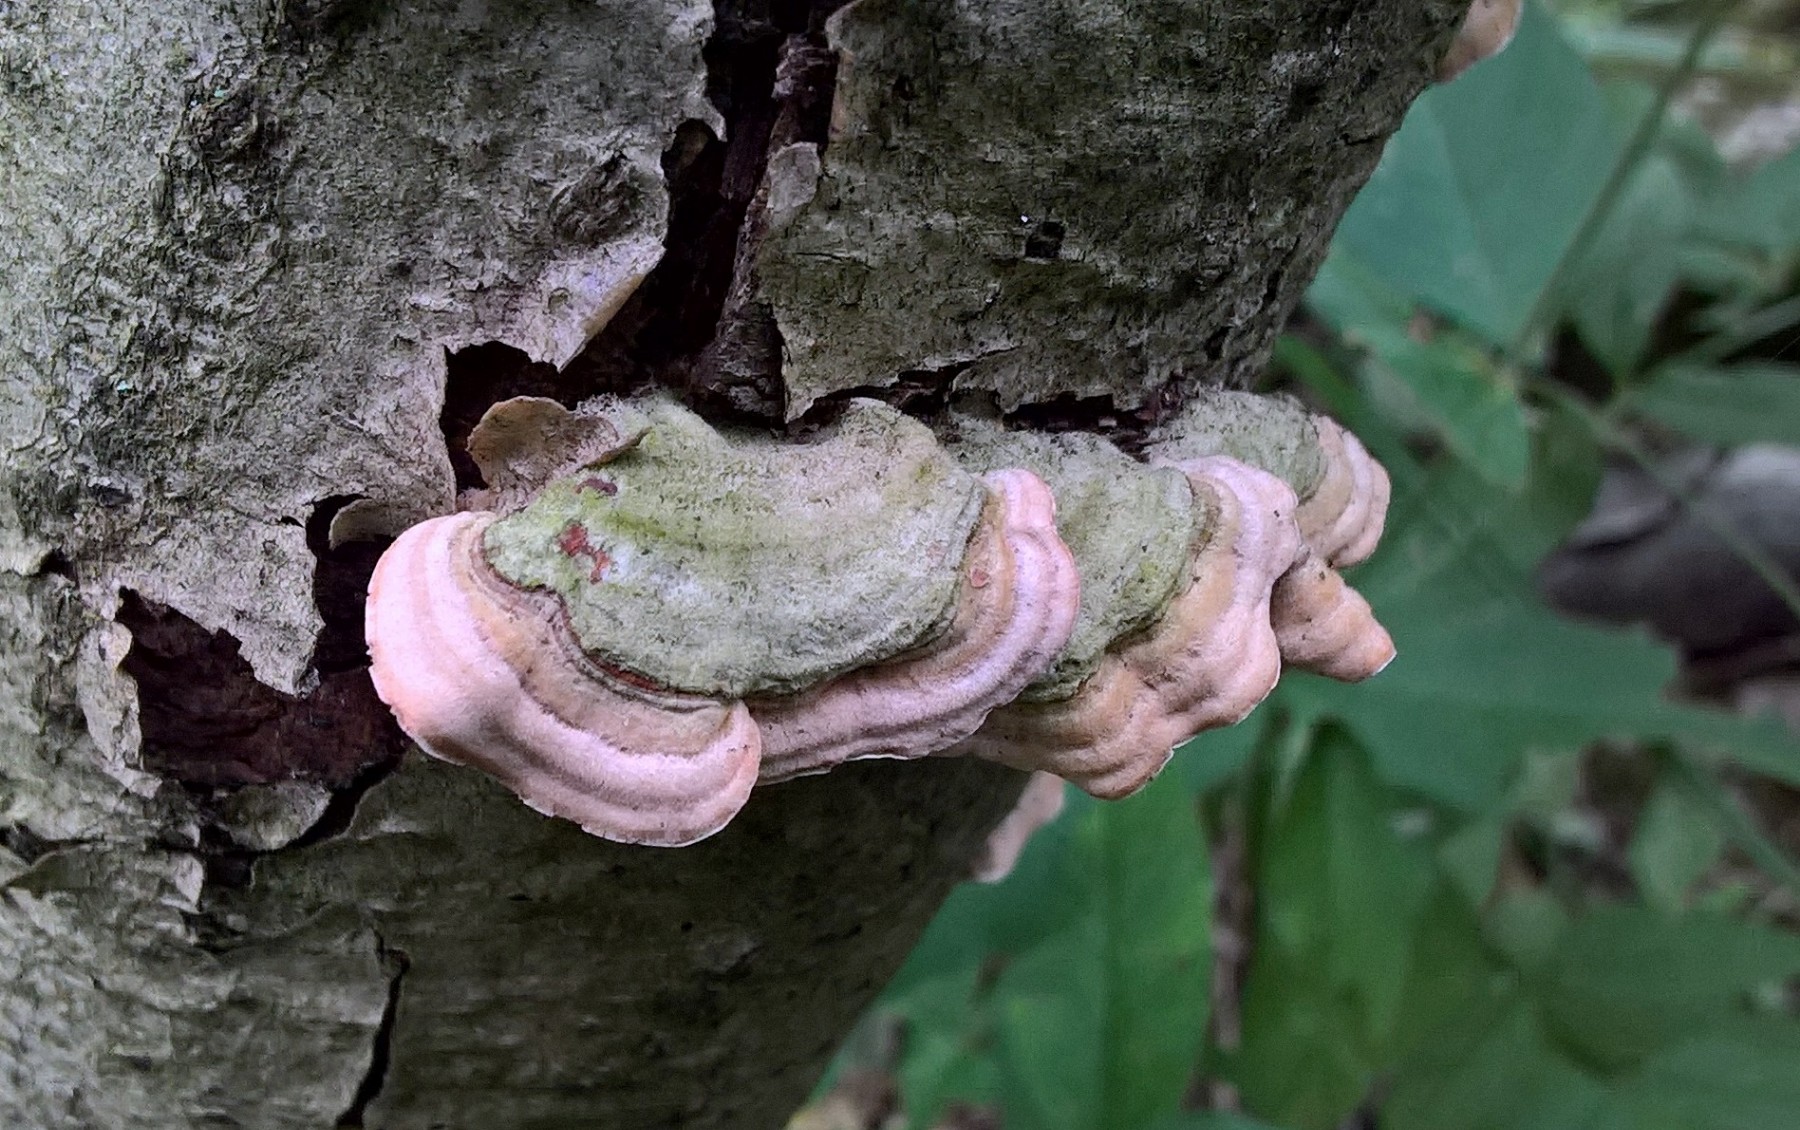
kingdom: Fungi
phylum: Basidiomycota
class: Agaricomycetes
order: Russulales
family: Stereaceae
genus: Stereum
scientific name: Stereum subtomentosum
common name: smuk lædersvamp
